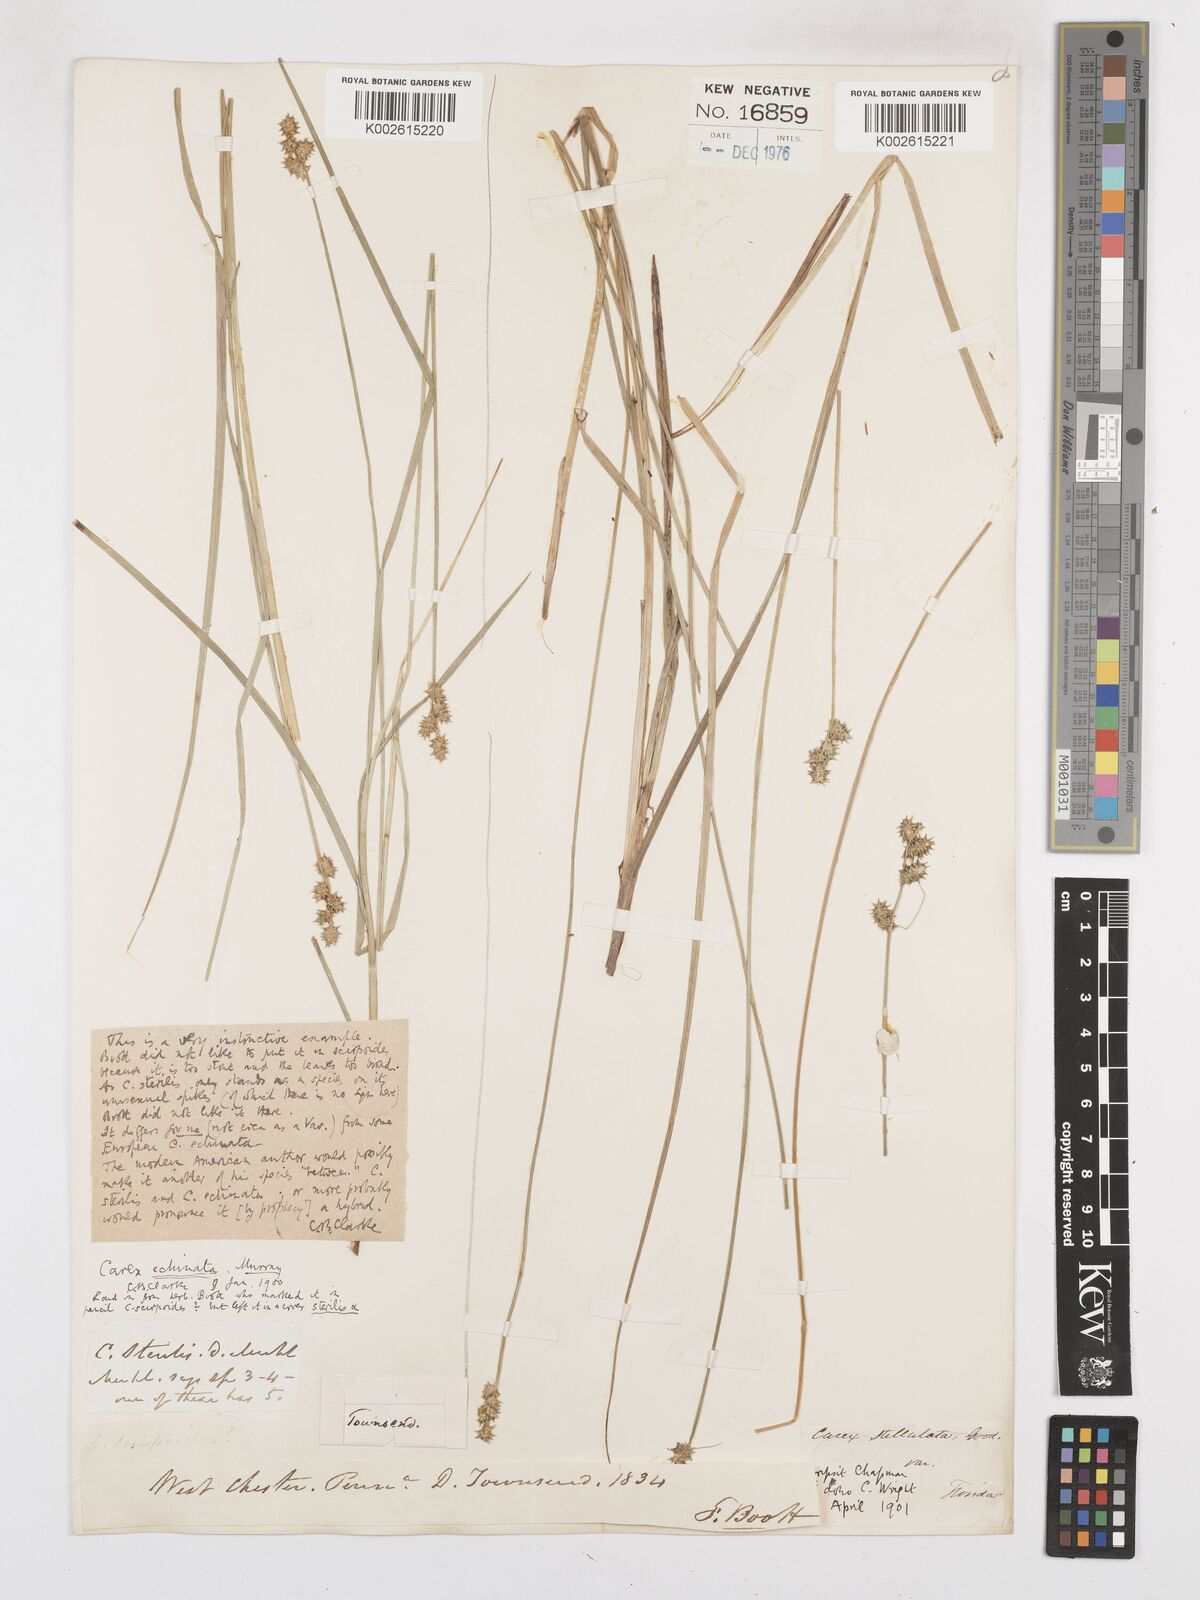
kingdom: Plantae
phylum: Tracheophyta
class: Liliopsida
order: Poales
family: Cyperaceae
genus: Carex
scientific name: Carex echinata
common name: Star sedge
